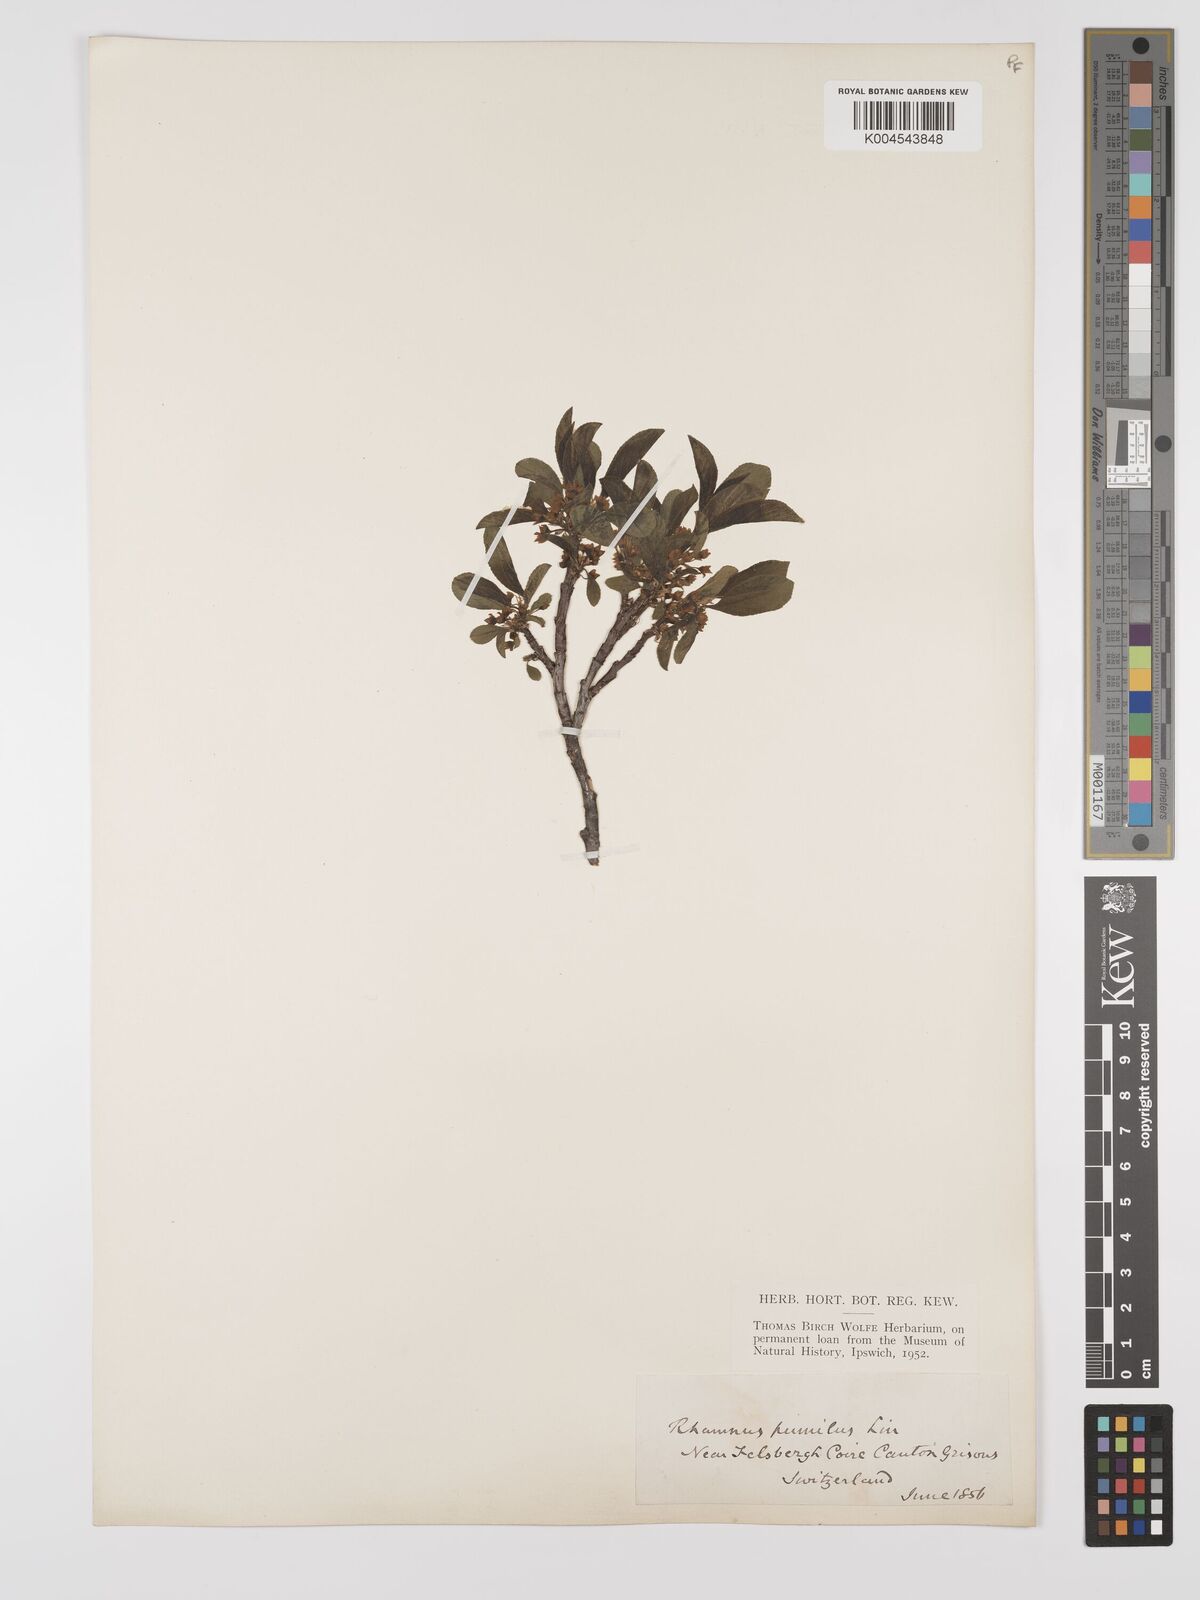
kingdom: Plantae
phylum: Tracheophyta
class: Magnoliopsida
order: Rosales
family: Rhamnaceae
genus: Rhamnus
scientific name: Rhamnus
